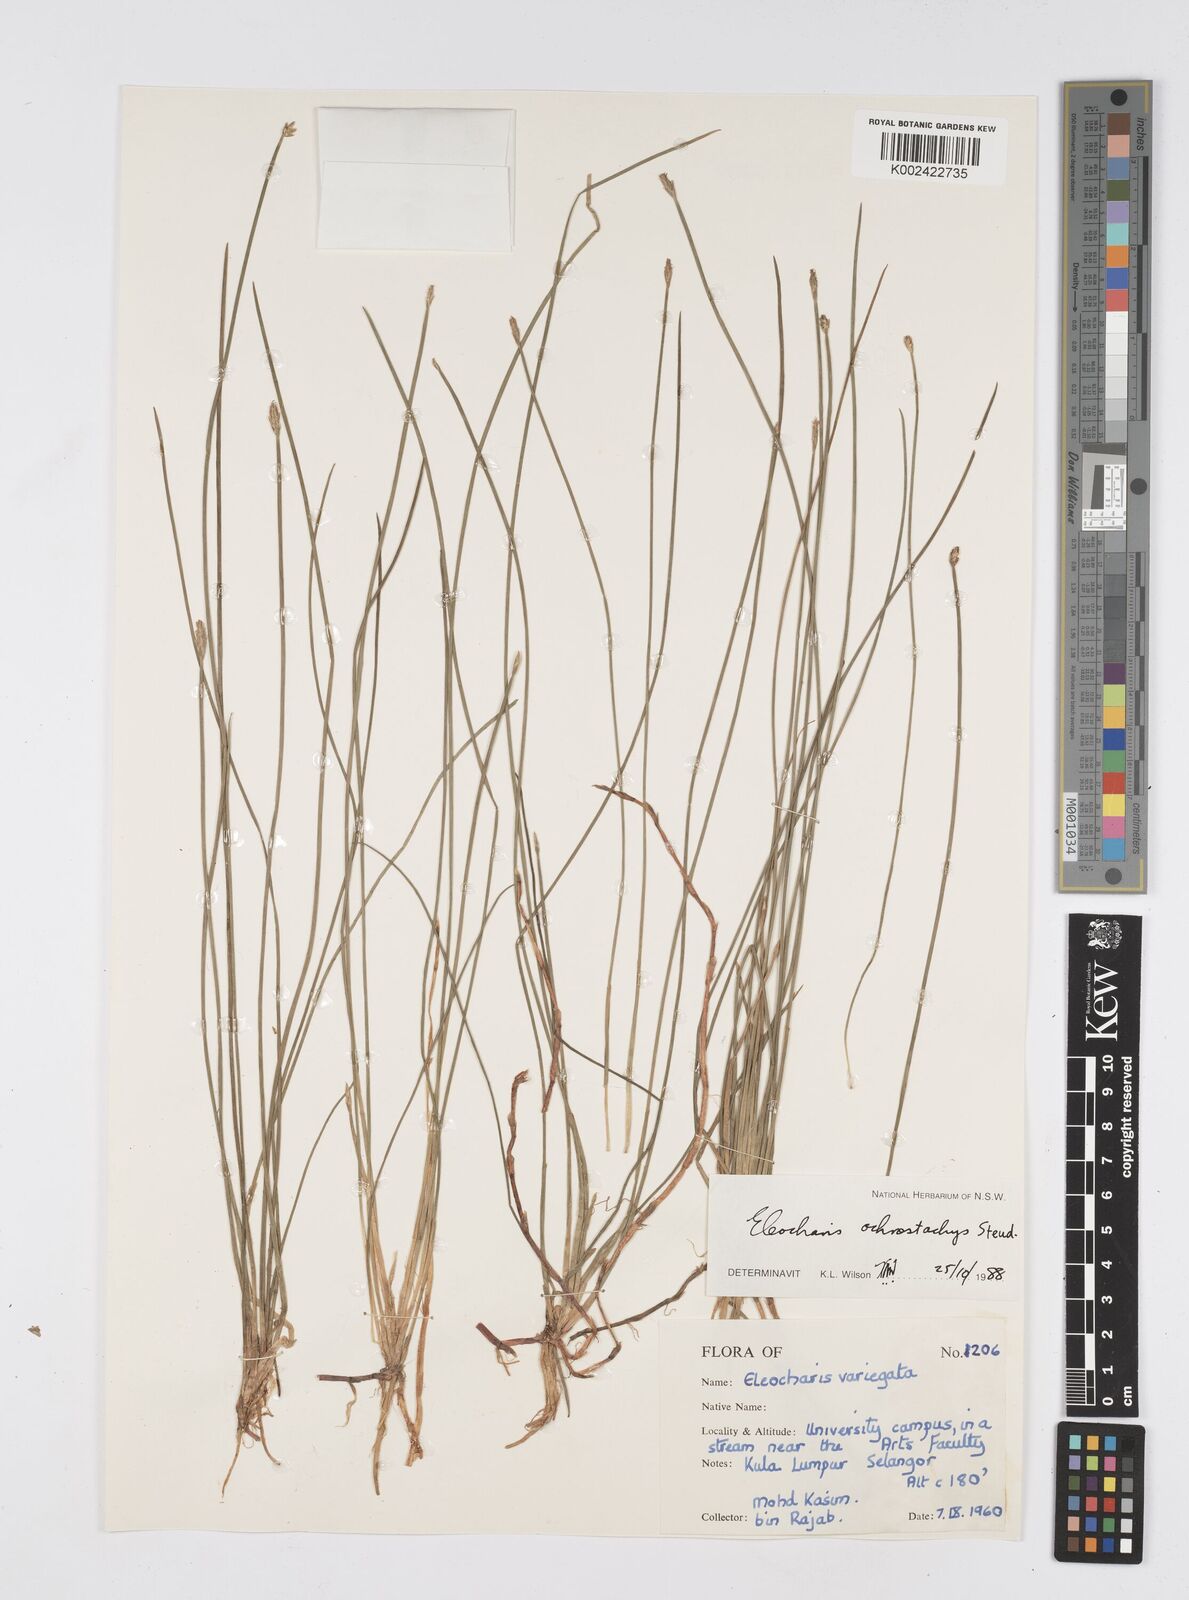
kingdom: Plantae
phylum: Tracheophyta
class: Liliopsida
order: Poales
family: Cyperaceae
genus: Eleocharis
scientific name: Eleocharis variegata
